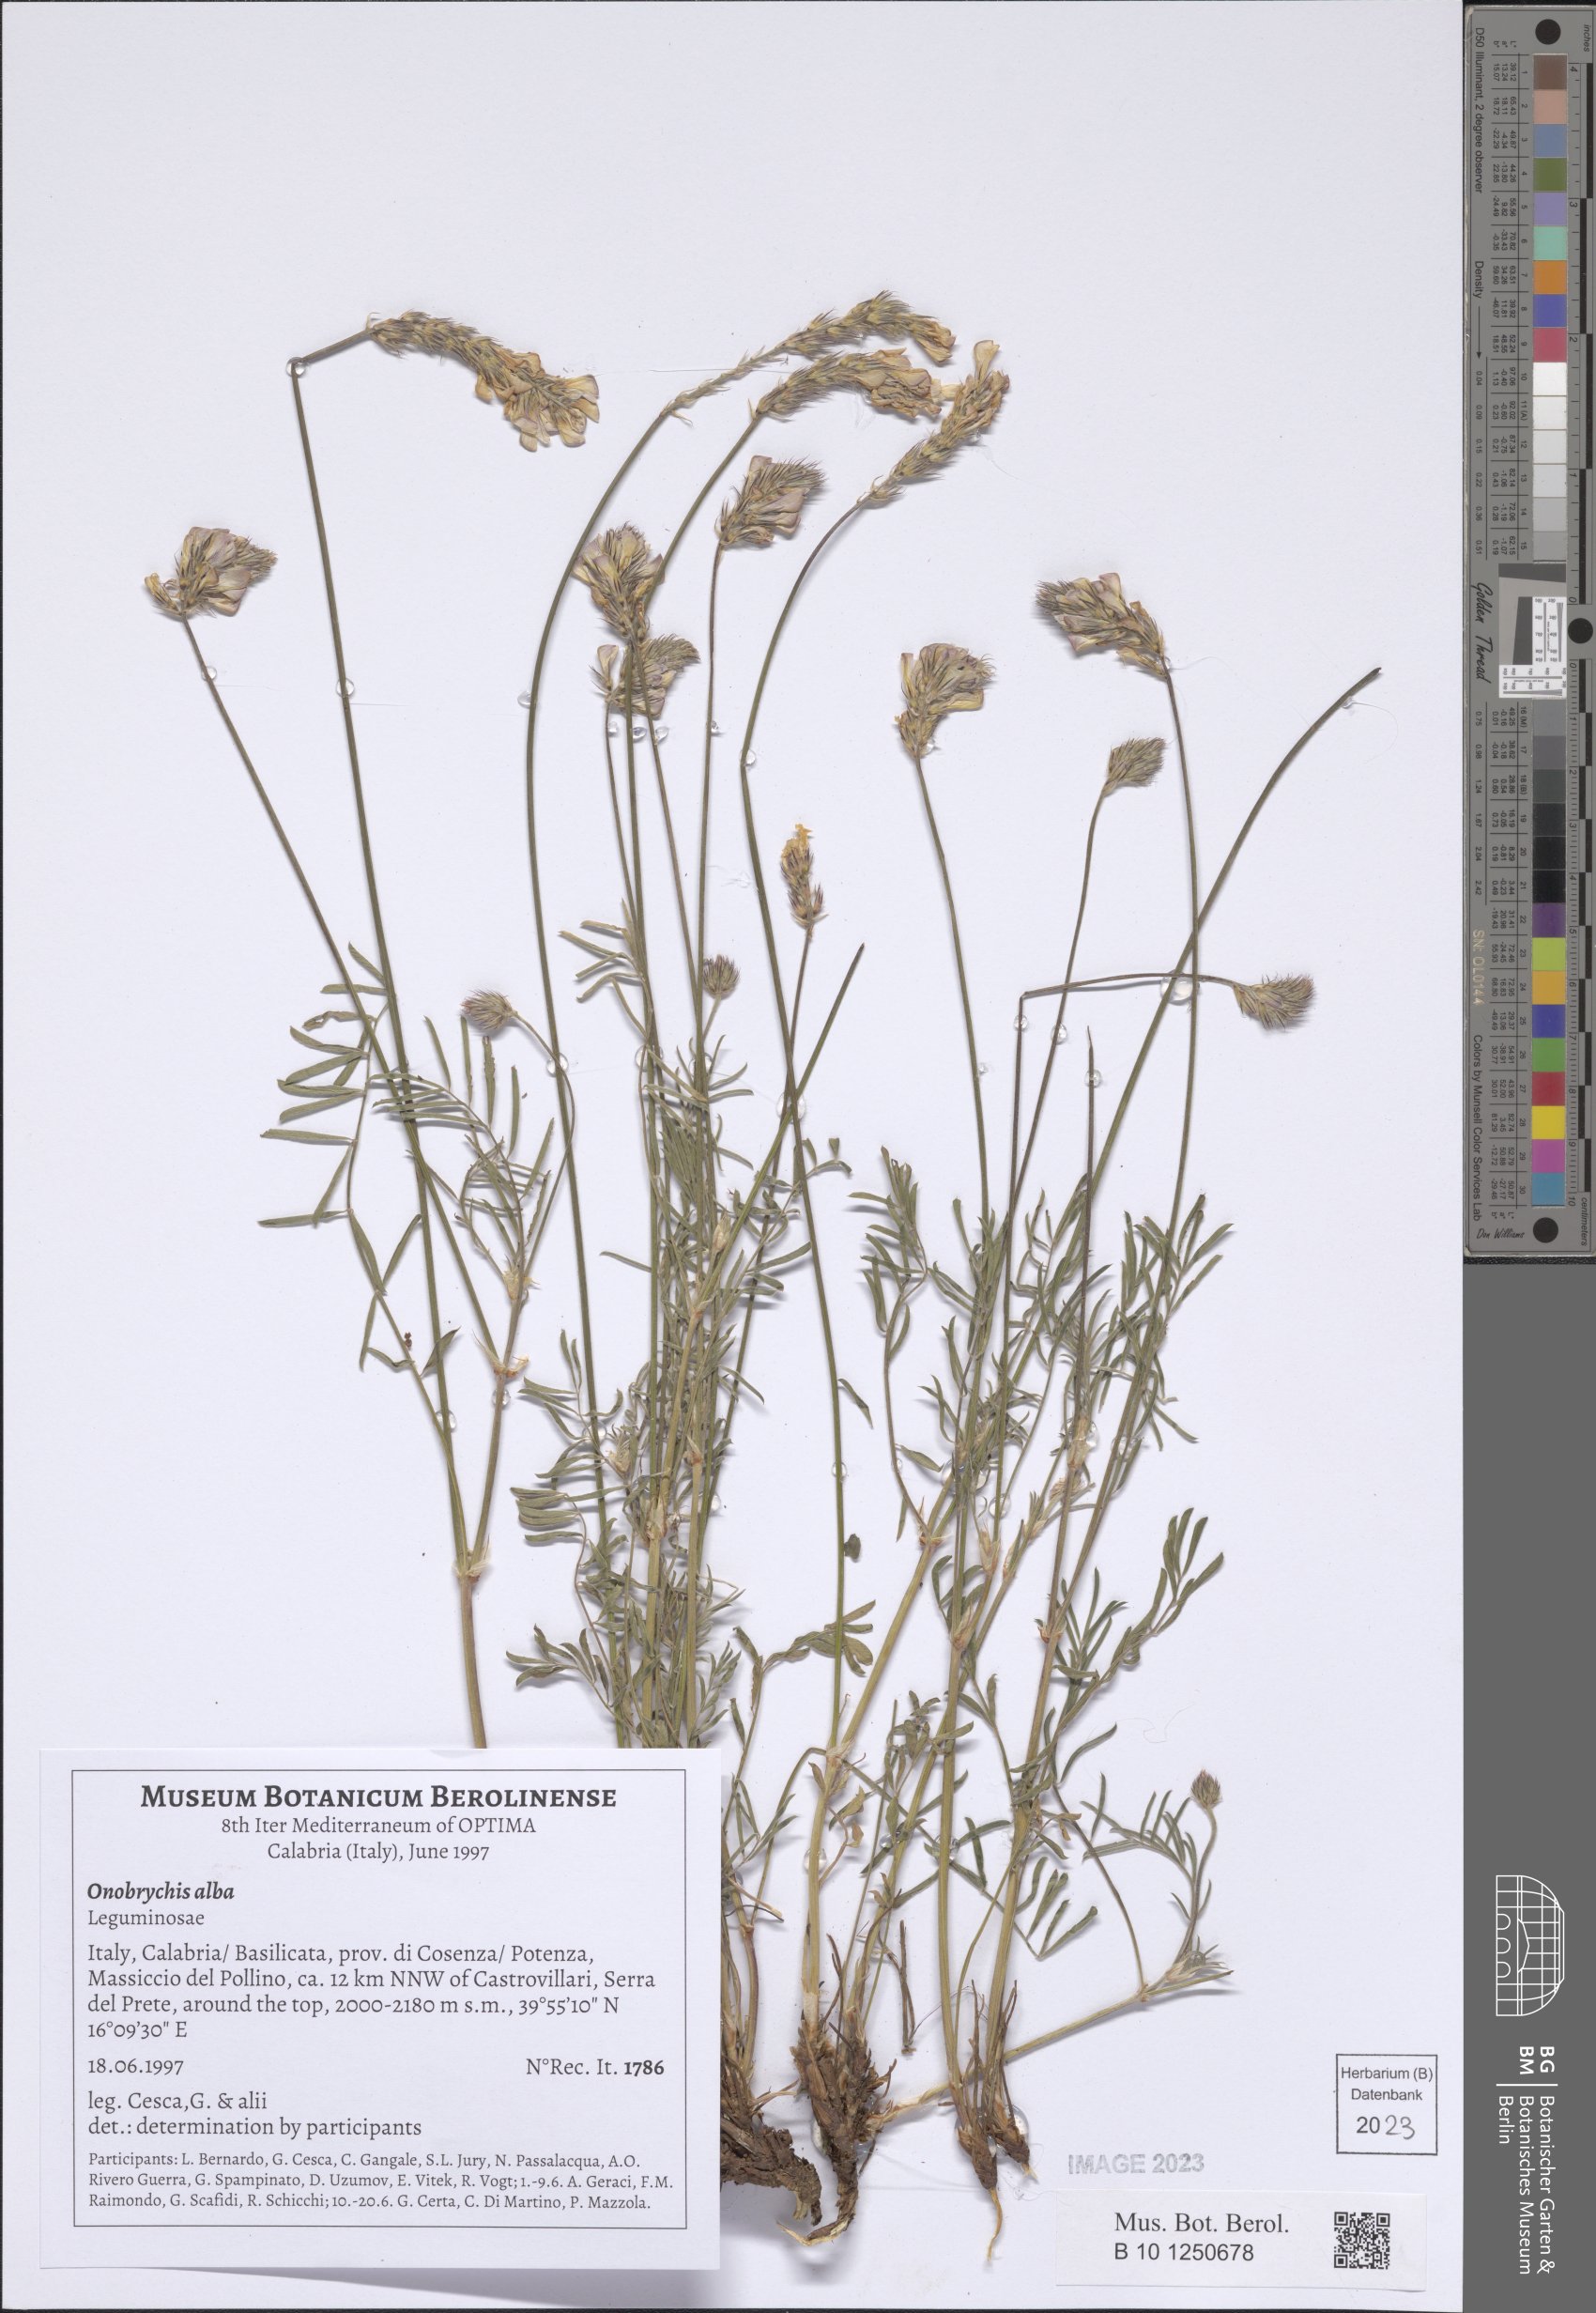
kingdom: Plantae
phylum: Tracheophyta
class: Magnoliopsida
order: Fabales
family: Fabaceae
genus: Onobrychis
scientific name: Onobrychis alba
